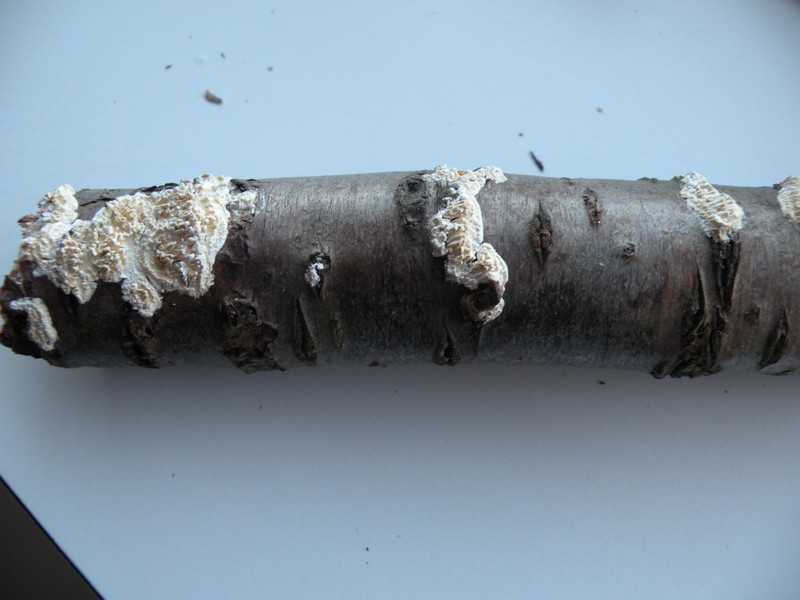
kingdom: Fungi
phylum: Basidiomycota
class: Agaricomycetes
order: Hymenochaetales
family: Schizoporaceae
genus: Xylodon
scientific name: Xylodon radula
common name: grovtandet kalkskind
